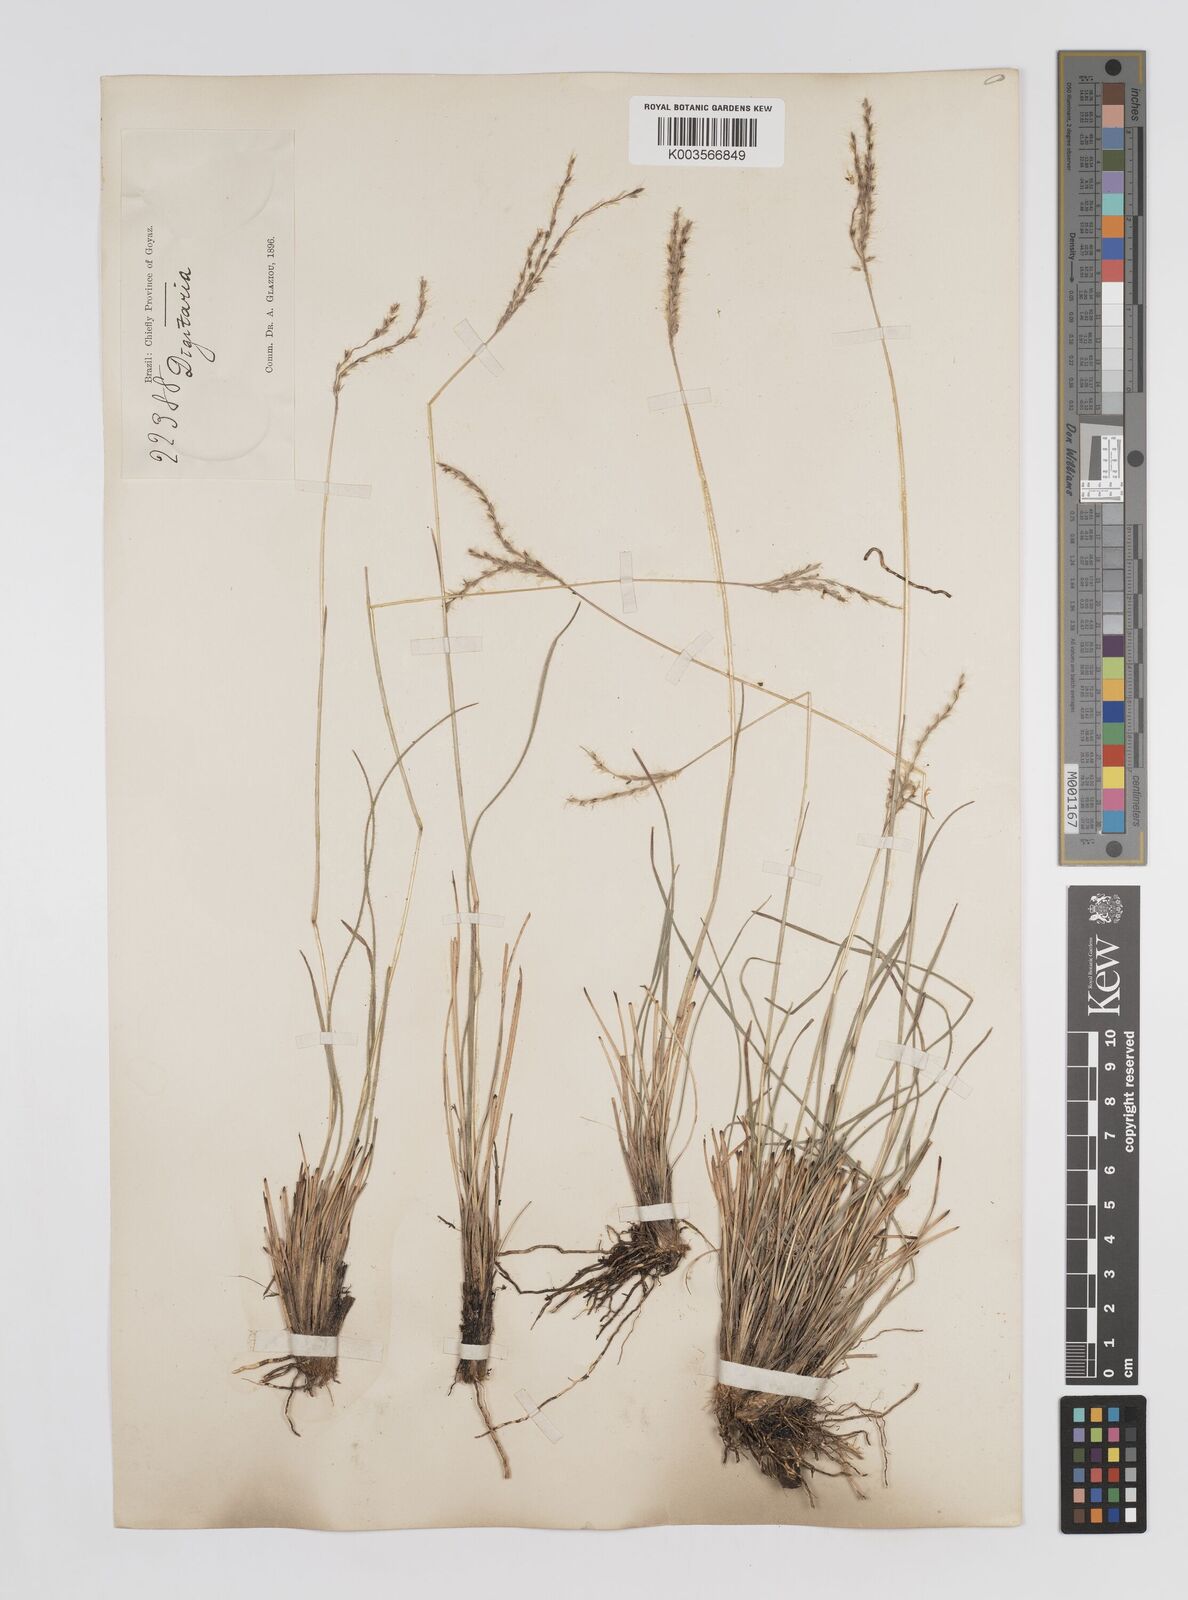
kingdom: Plantae
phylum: Tracheophyta
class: Liliopsida
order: Poales
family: Poaceae
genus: Axonopus
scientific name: Axonopus brasiliensis
